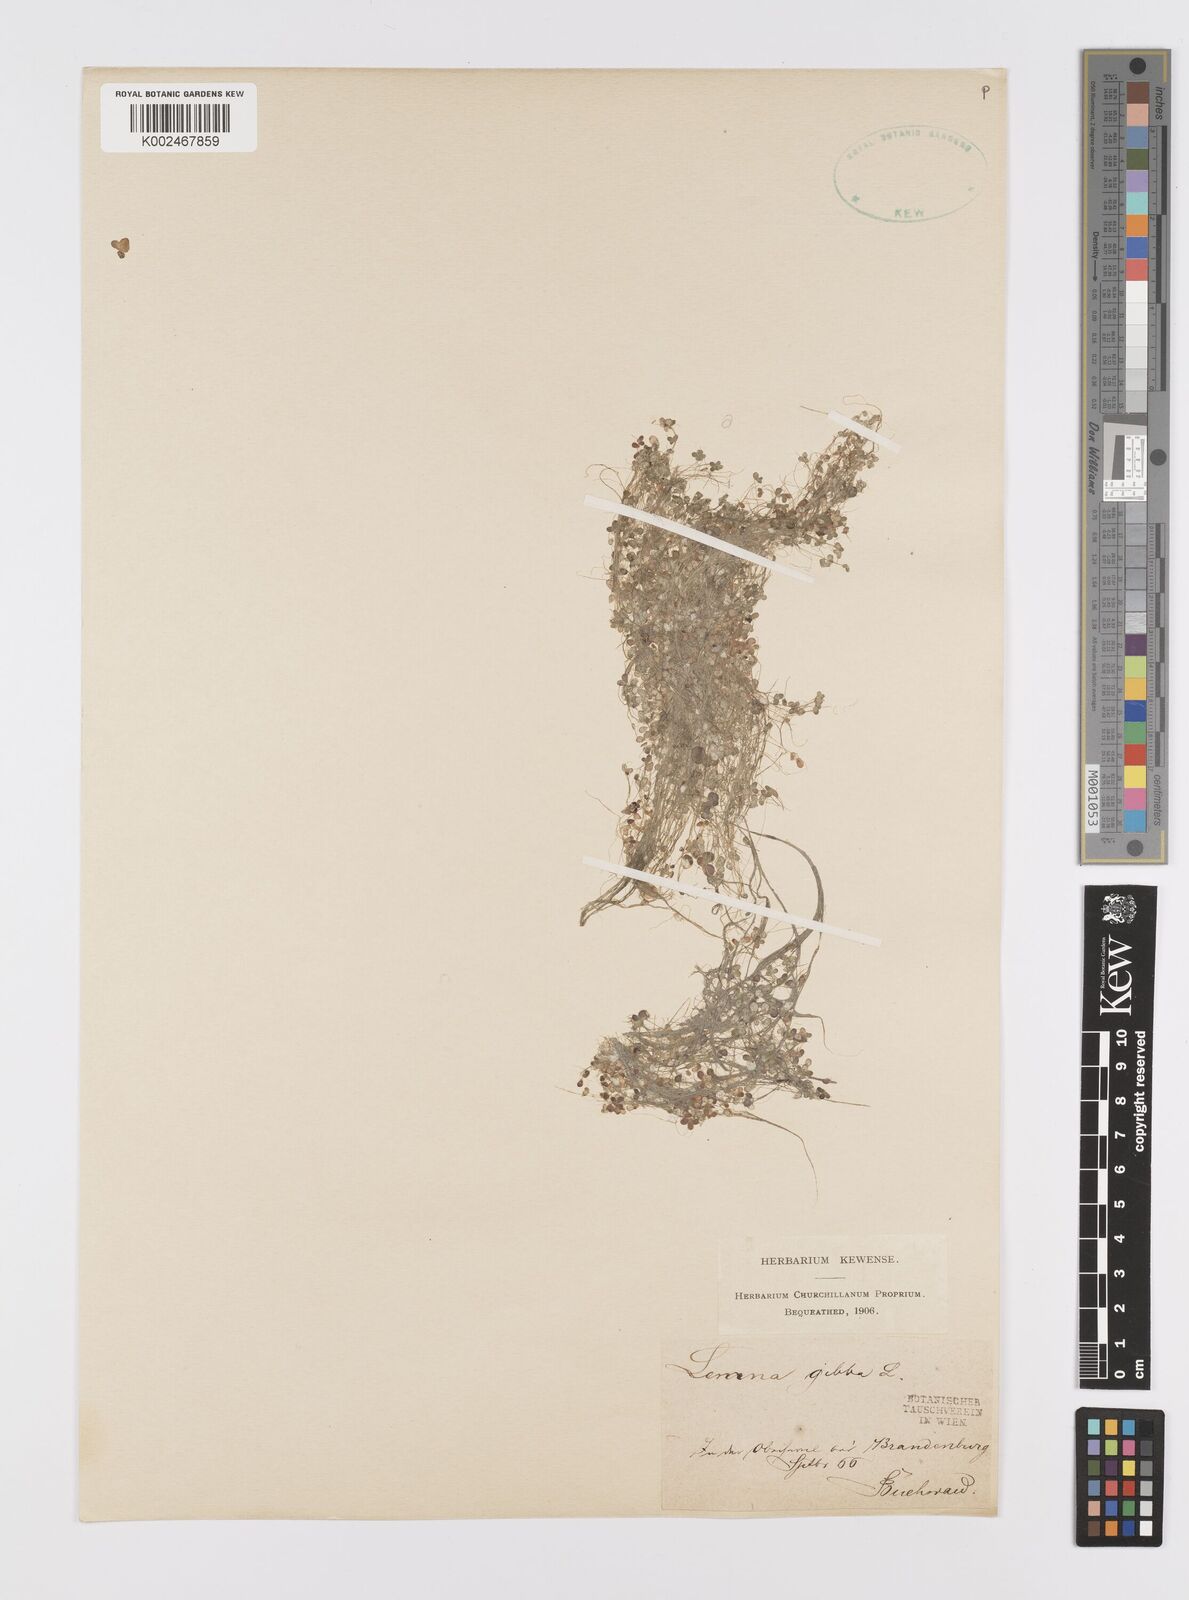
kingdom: Plantae
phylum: Tracheophyta
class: Liliopsida
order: Alismatales
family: Araceae
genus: Lemna
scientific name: Lemna gibba
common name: Fat duckweed
